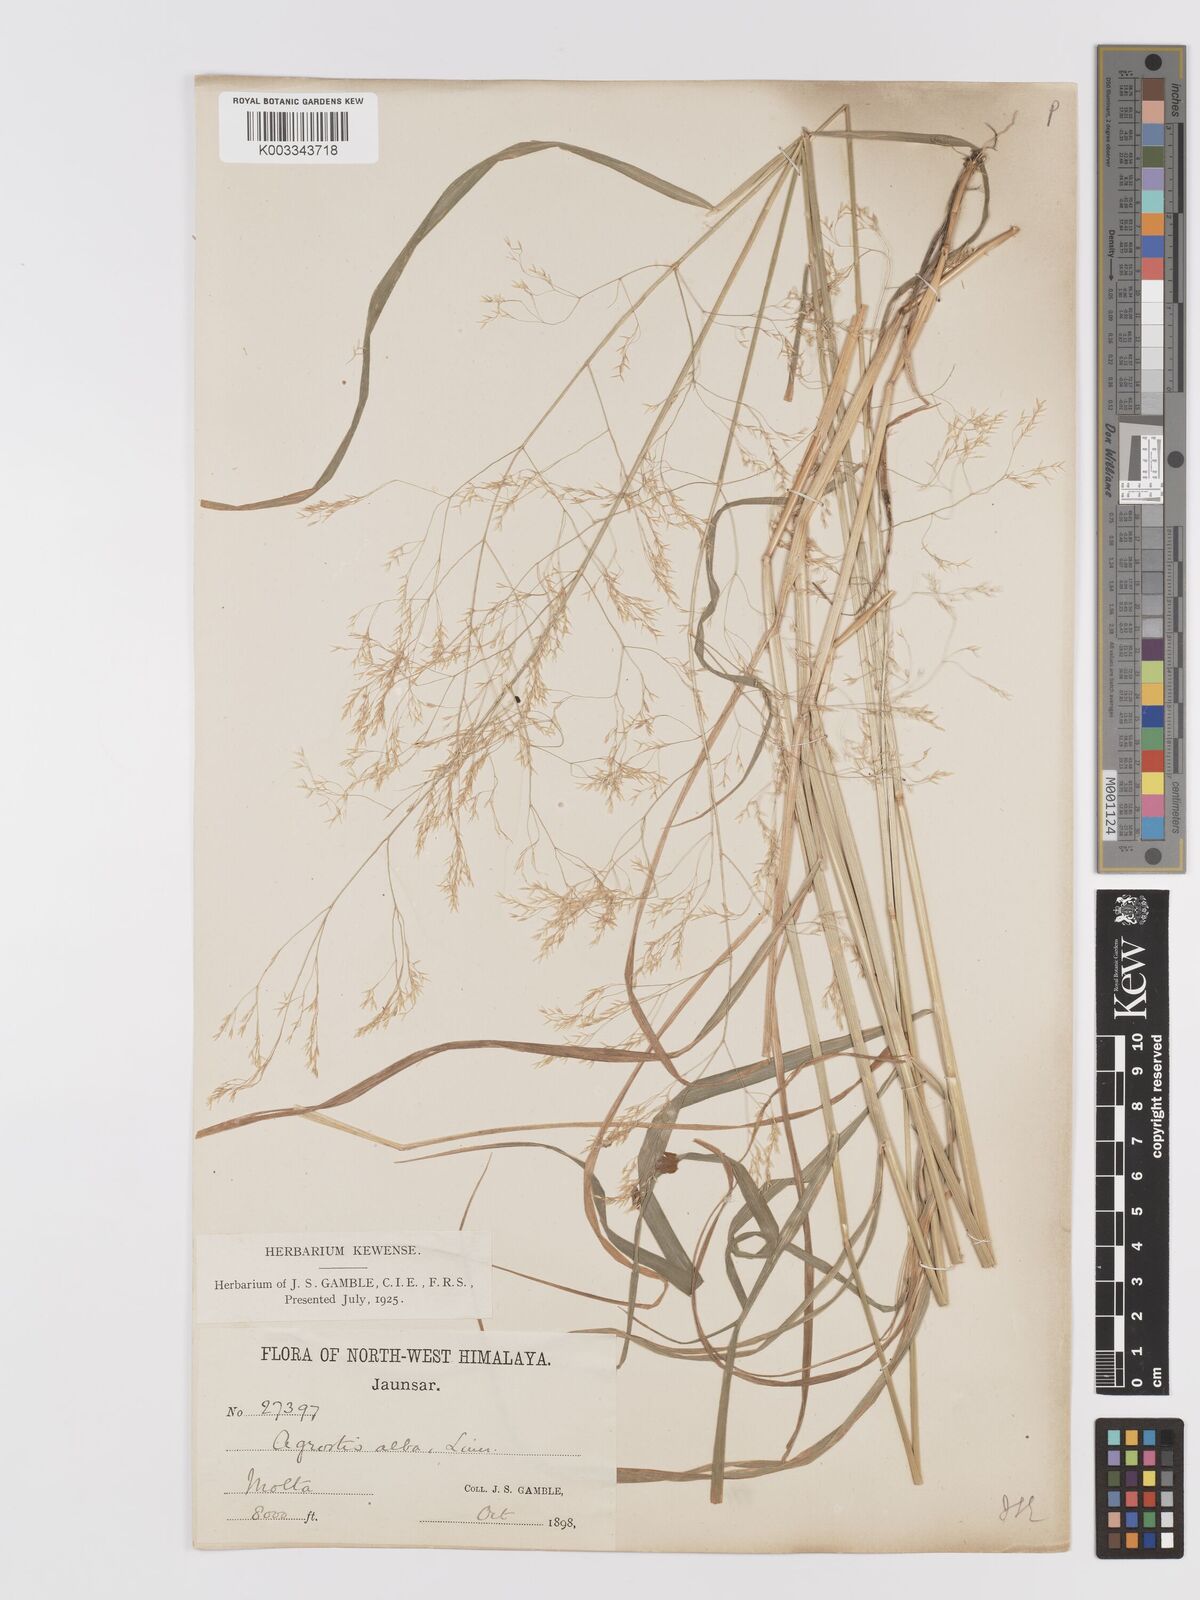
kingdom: Plantae
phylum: Tracheophyta
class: Liliopsida
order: Poales
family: Poaceae
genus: Agrostis
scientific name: Agrostis pilosula
